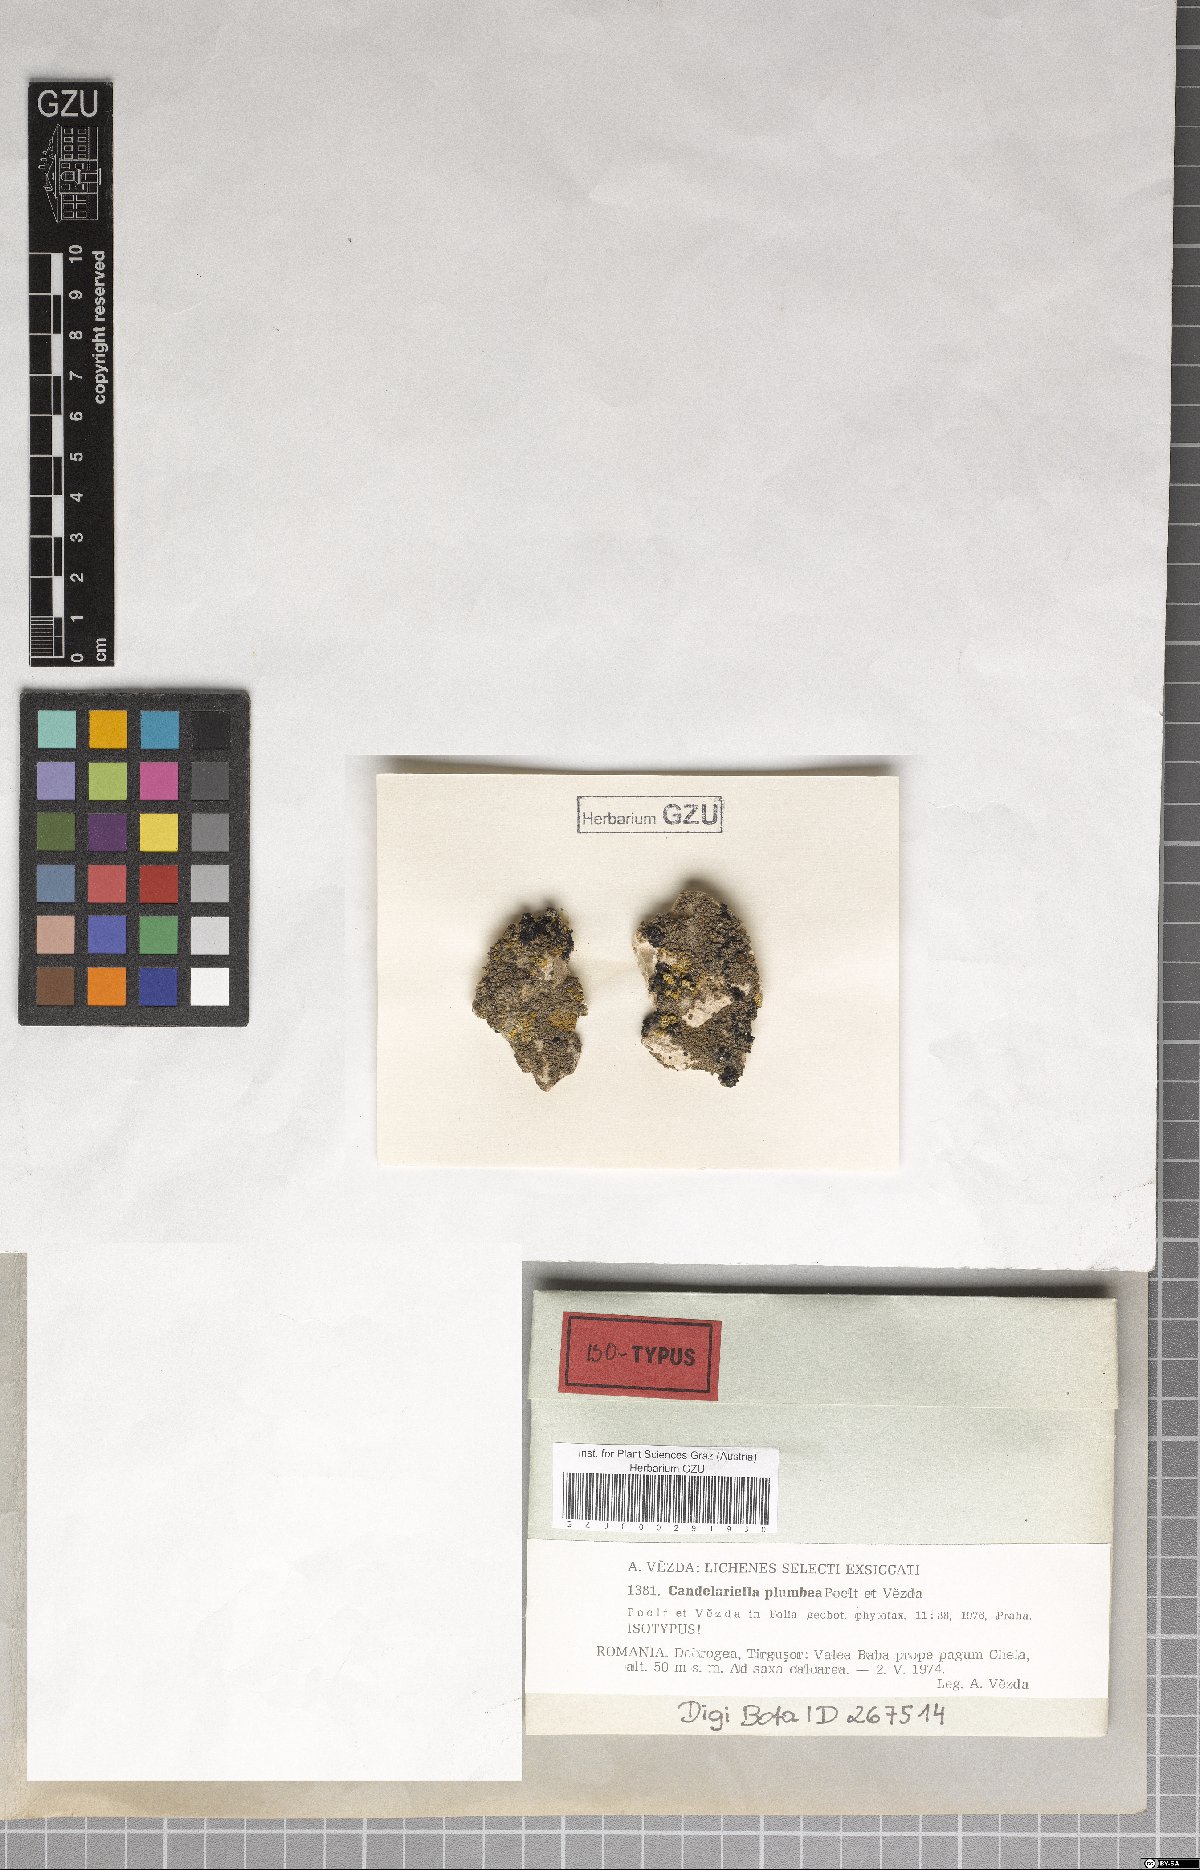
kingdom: Fungi
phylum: Ascomycota
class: Candelariomycetes
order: Candelariales
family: Candelariaceae
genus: Candelariella
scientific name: Candelariella plumbea
